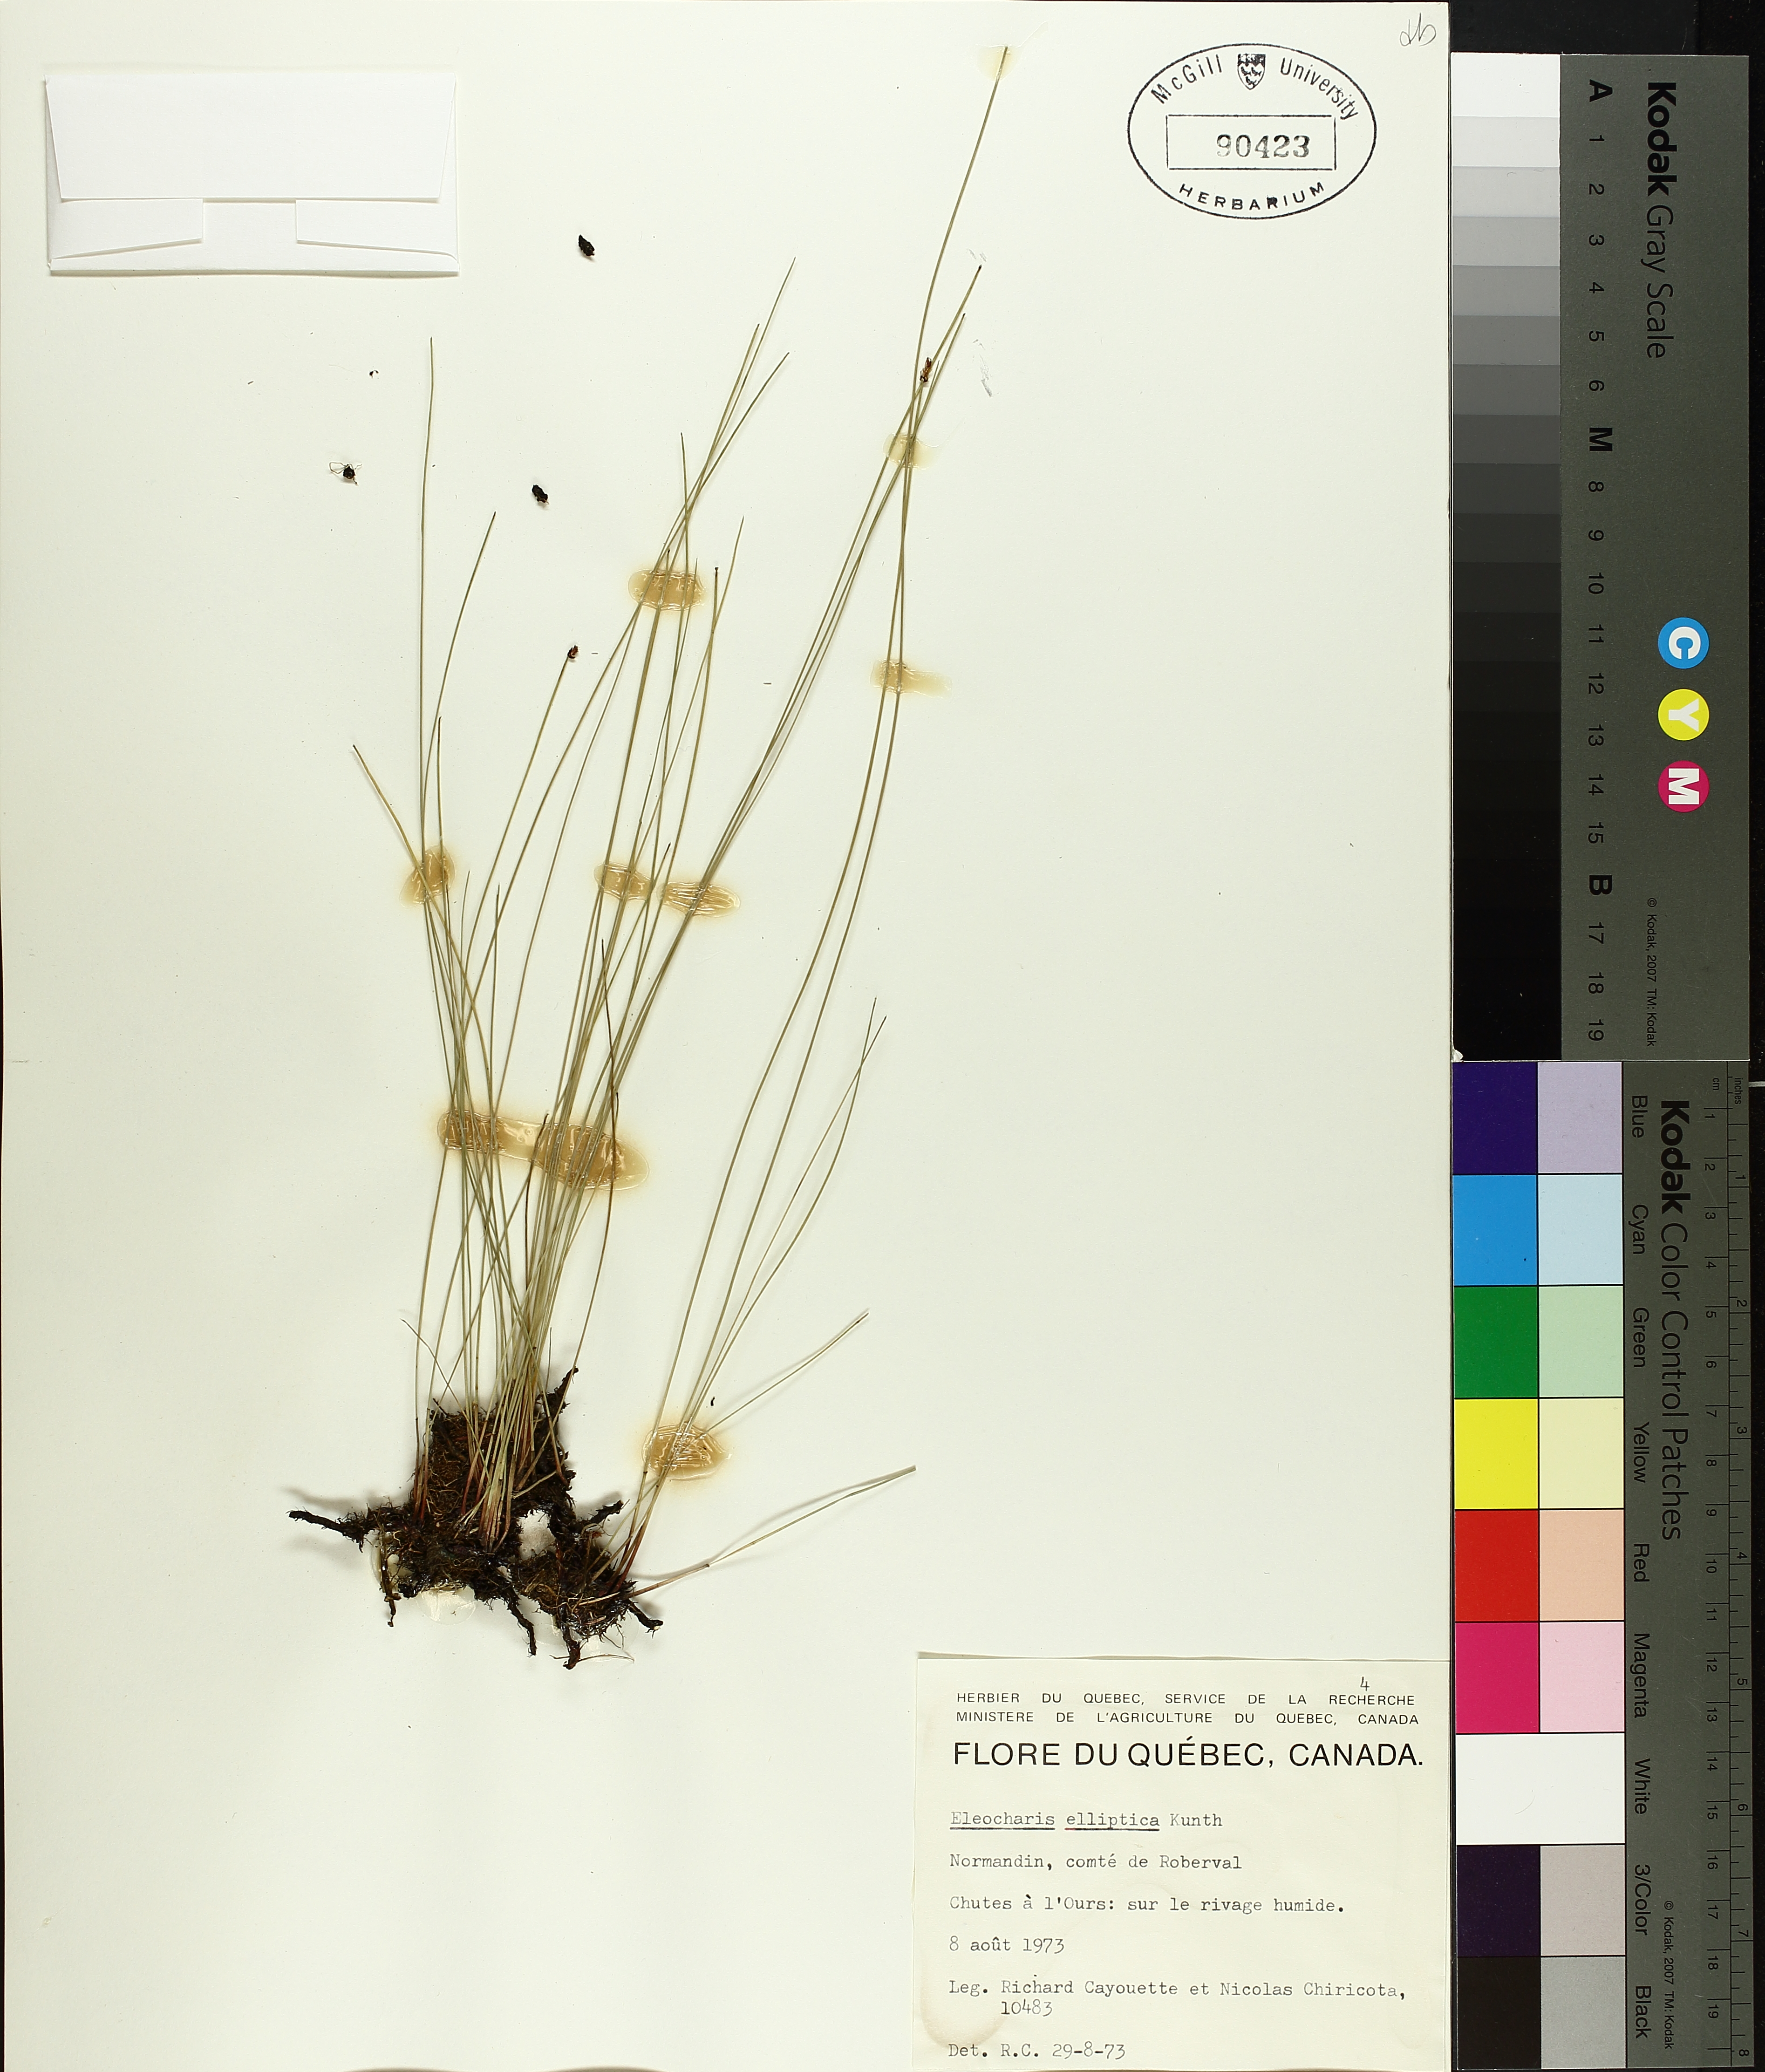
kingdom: Plantae
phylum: Tracheophyta
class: Liliopsida
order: Poales
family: Cyperaceae
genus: Eleocharis
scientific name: Eleocharis elliptica
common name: Capitate spikerush
